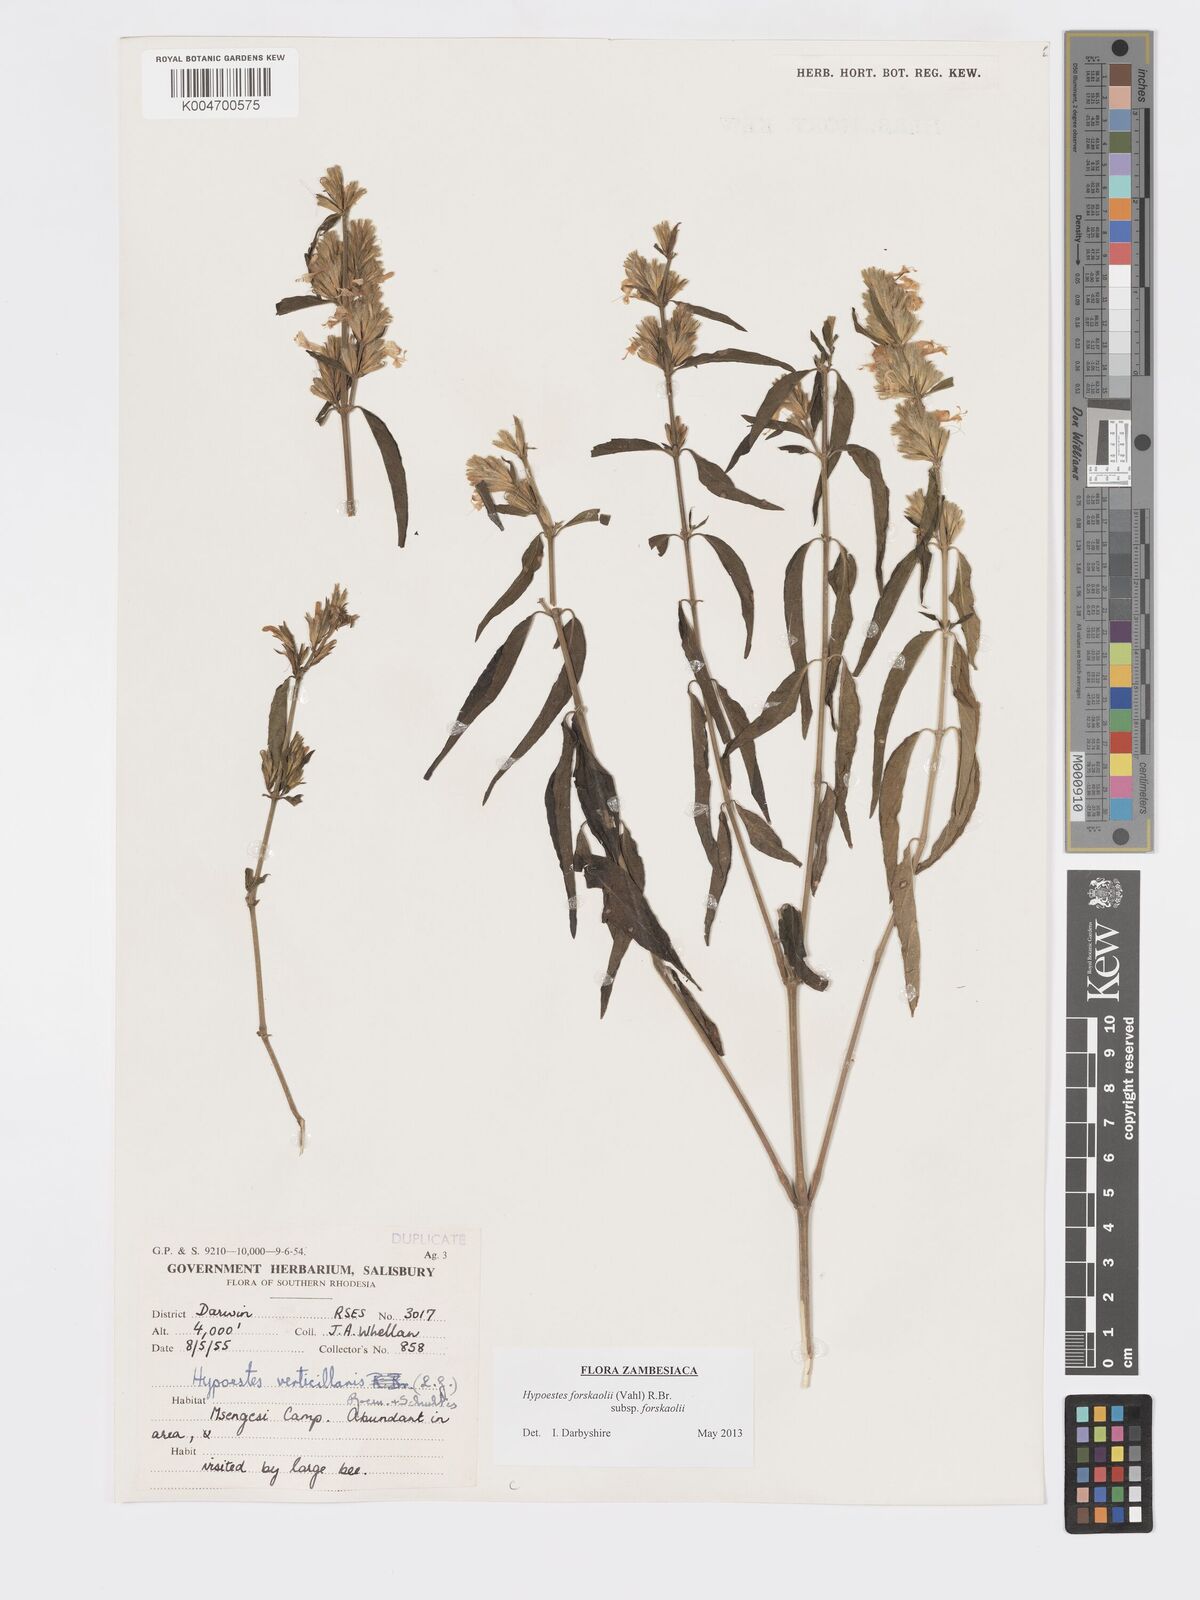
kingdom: Plantae
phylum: Tracheophyta
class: Magnoliopsida
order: Lamiales
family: Acanthaceae
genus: Hypoestes
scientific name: Hypoestes forskaolii
